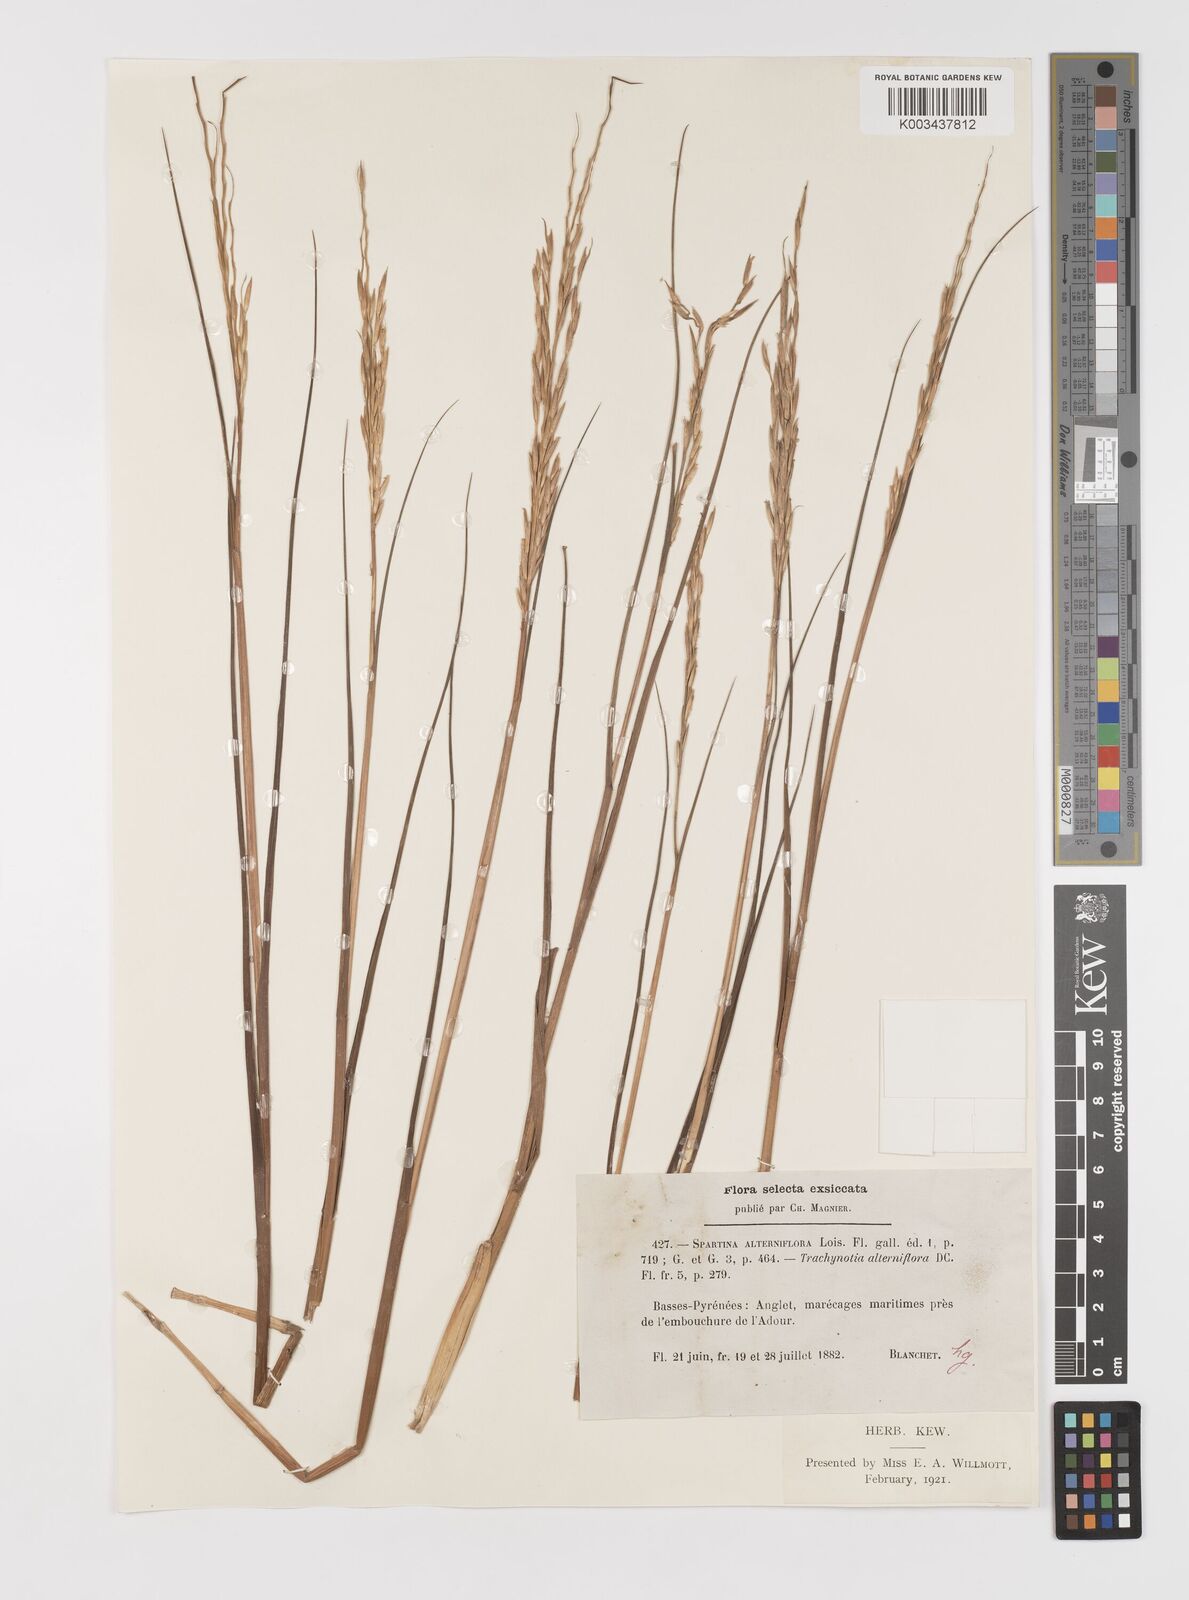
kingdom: Plantae
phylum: Tracheophyta
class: Liliopsida
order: Poales
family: Poaceae
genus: Sporobolus
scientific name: Sporobolus alterniflorus
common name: Atlantic cordgrass
